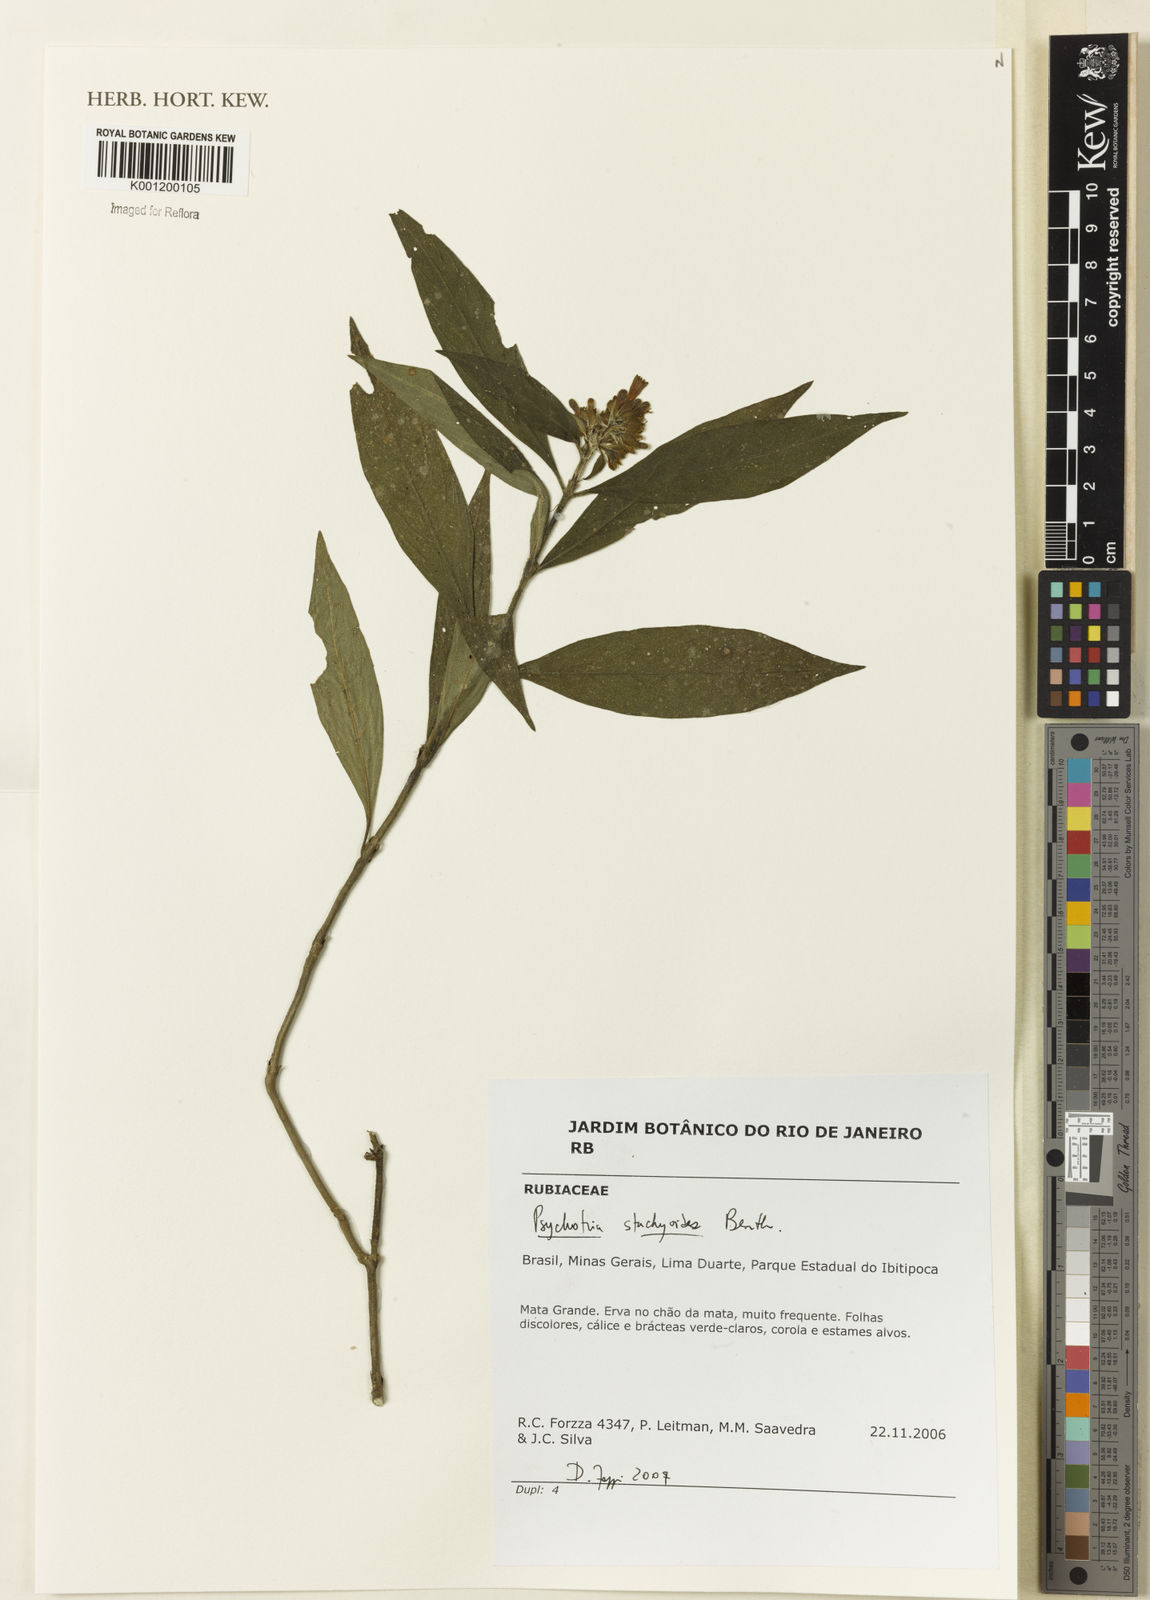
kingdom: Plantae
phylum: Tracheophyta
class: Magnoliopsida
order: Gentianales
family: Rubiaceae
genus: Psychotria
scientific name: Psychotria stachyoides
